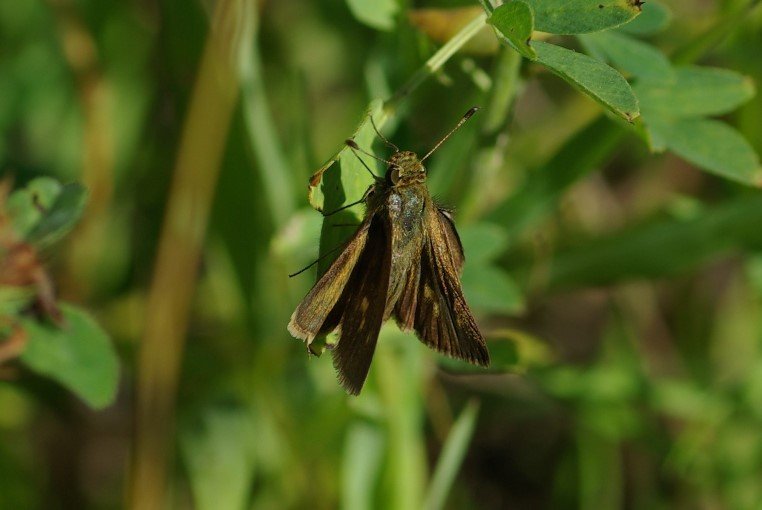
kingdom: Animalia
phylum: Arthropoda
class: Insecta
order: Lepidoptera
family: Hesperiidae
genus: Euphyes
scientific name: Euphyes vestris
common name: Dun Skipper
